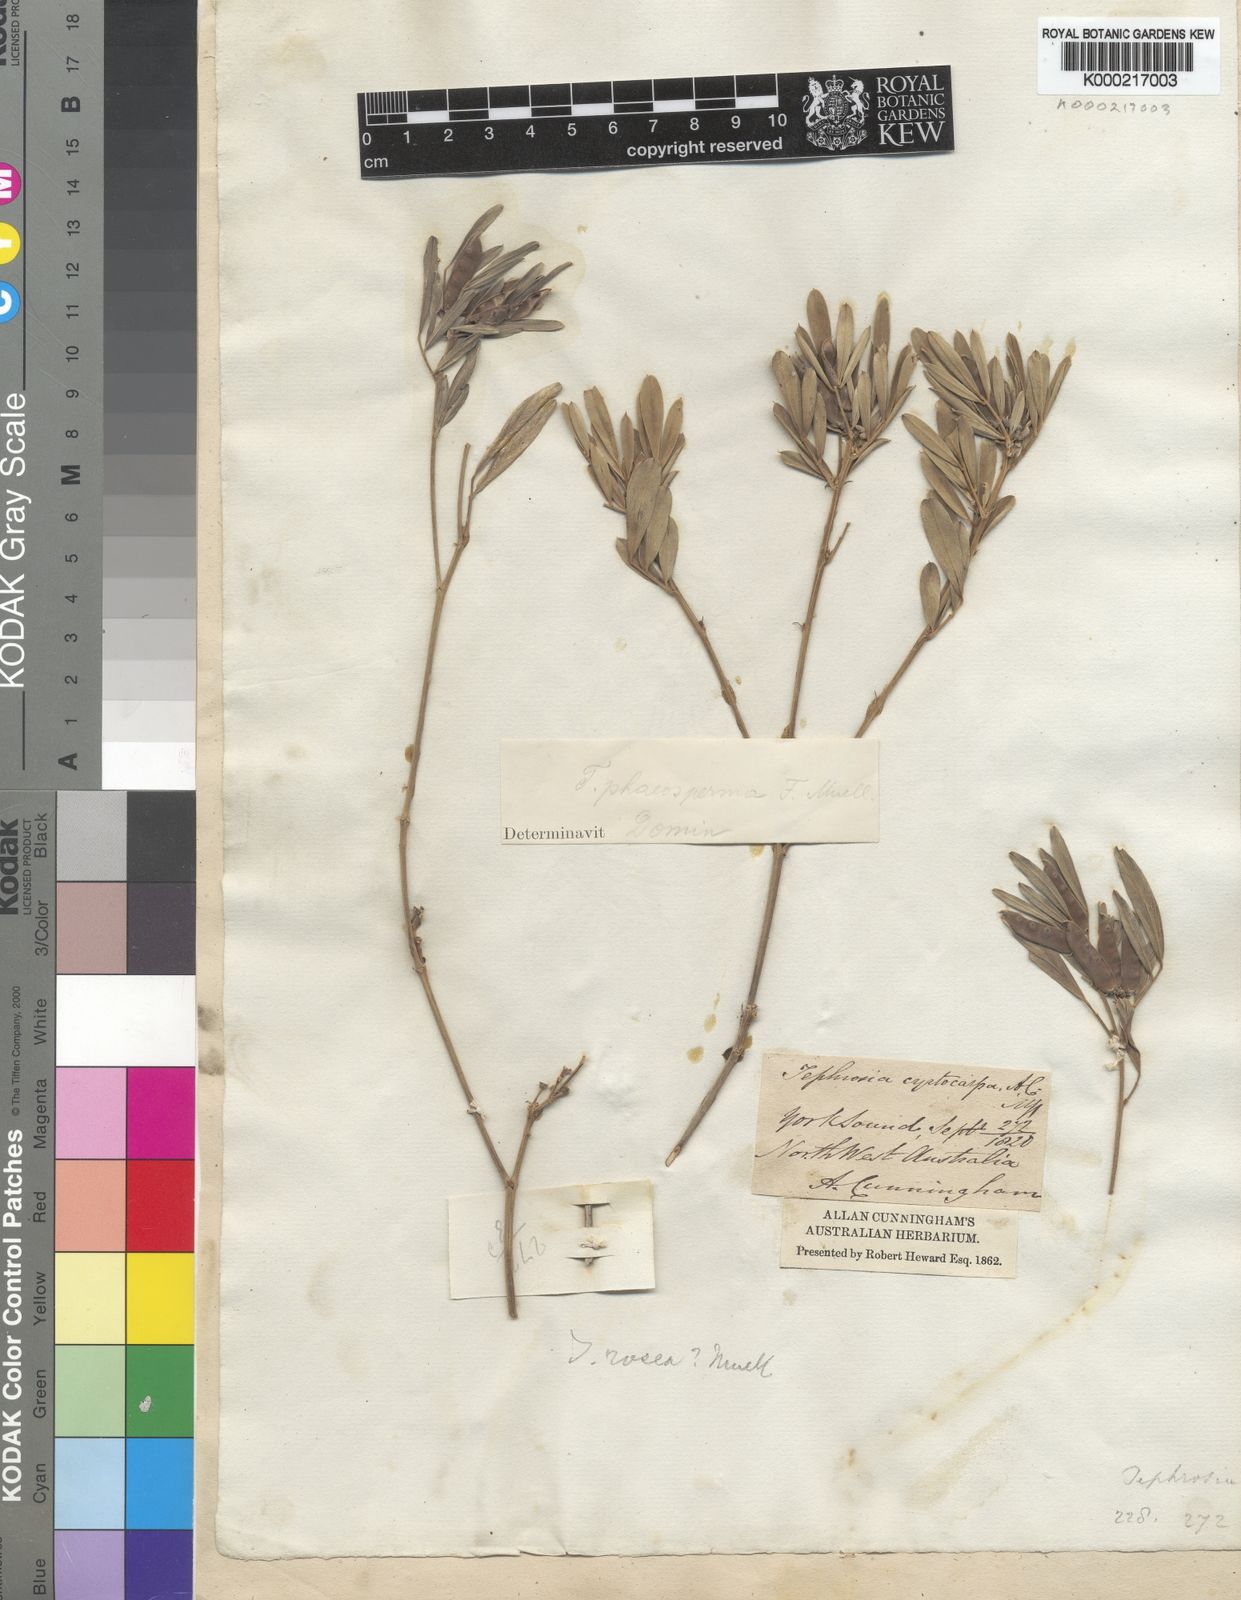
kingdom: Plantae
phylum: Tracheophyta
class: Magnoliopsida
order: Fabales
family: Fabaceae
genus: Tephrosia
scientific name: Tephrosia rosea
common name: Flinders river-poison
